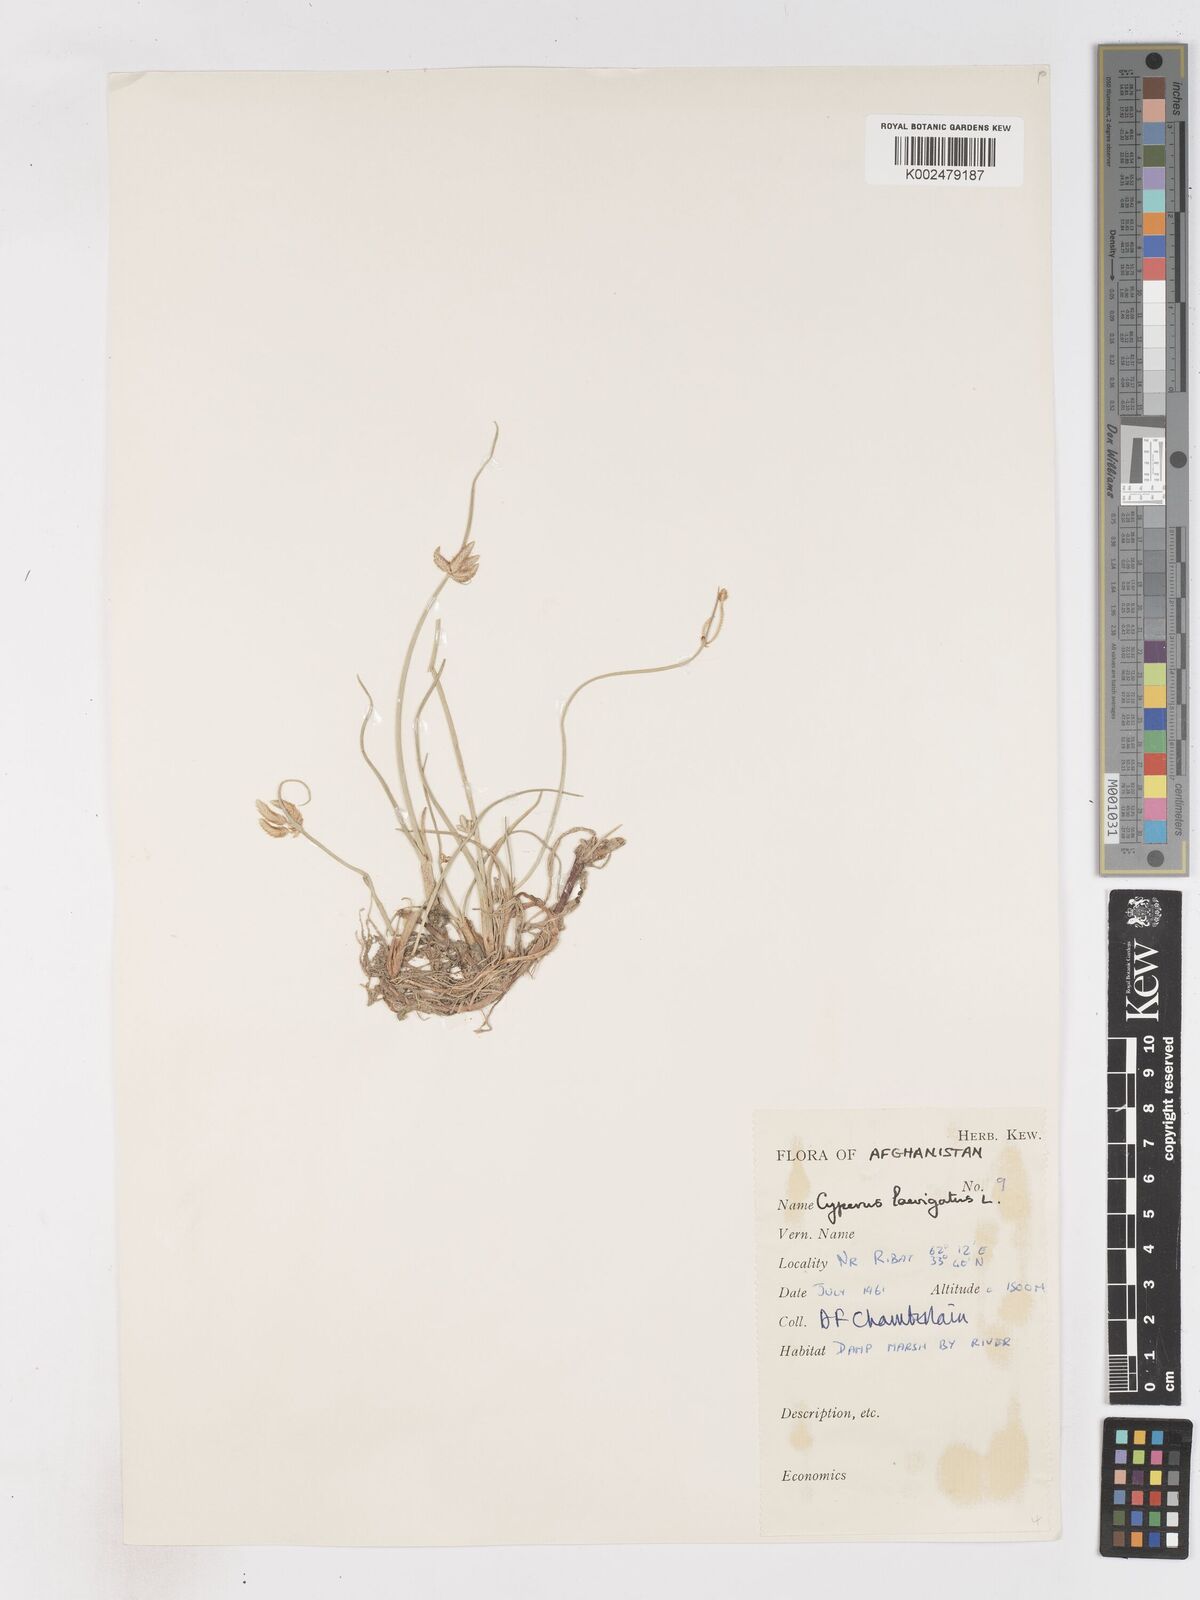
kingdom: Plantae
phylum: Tracheophyta
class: Liliopsida
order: Poales
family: Cyperaceae
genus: Cyperus
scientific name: Cyperus laevigatus
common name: Smooth flat sedge
